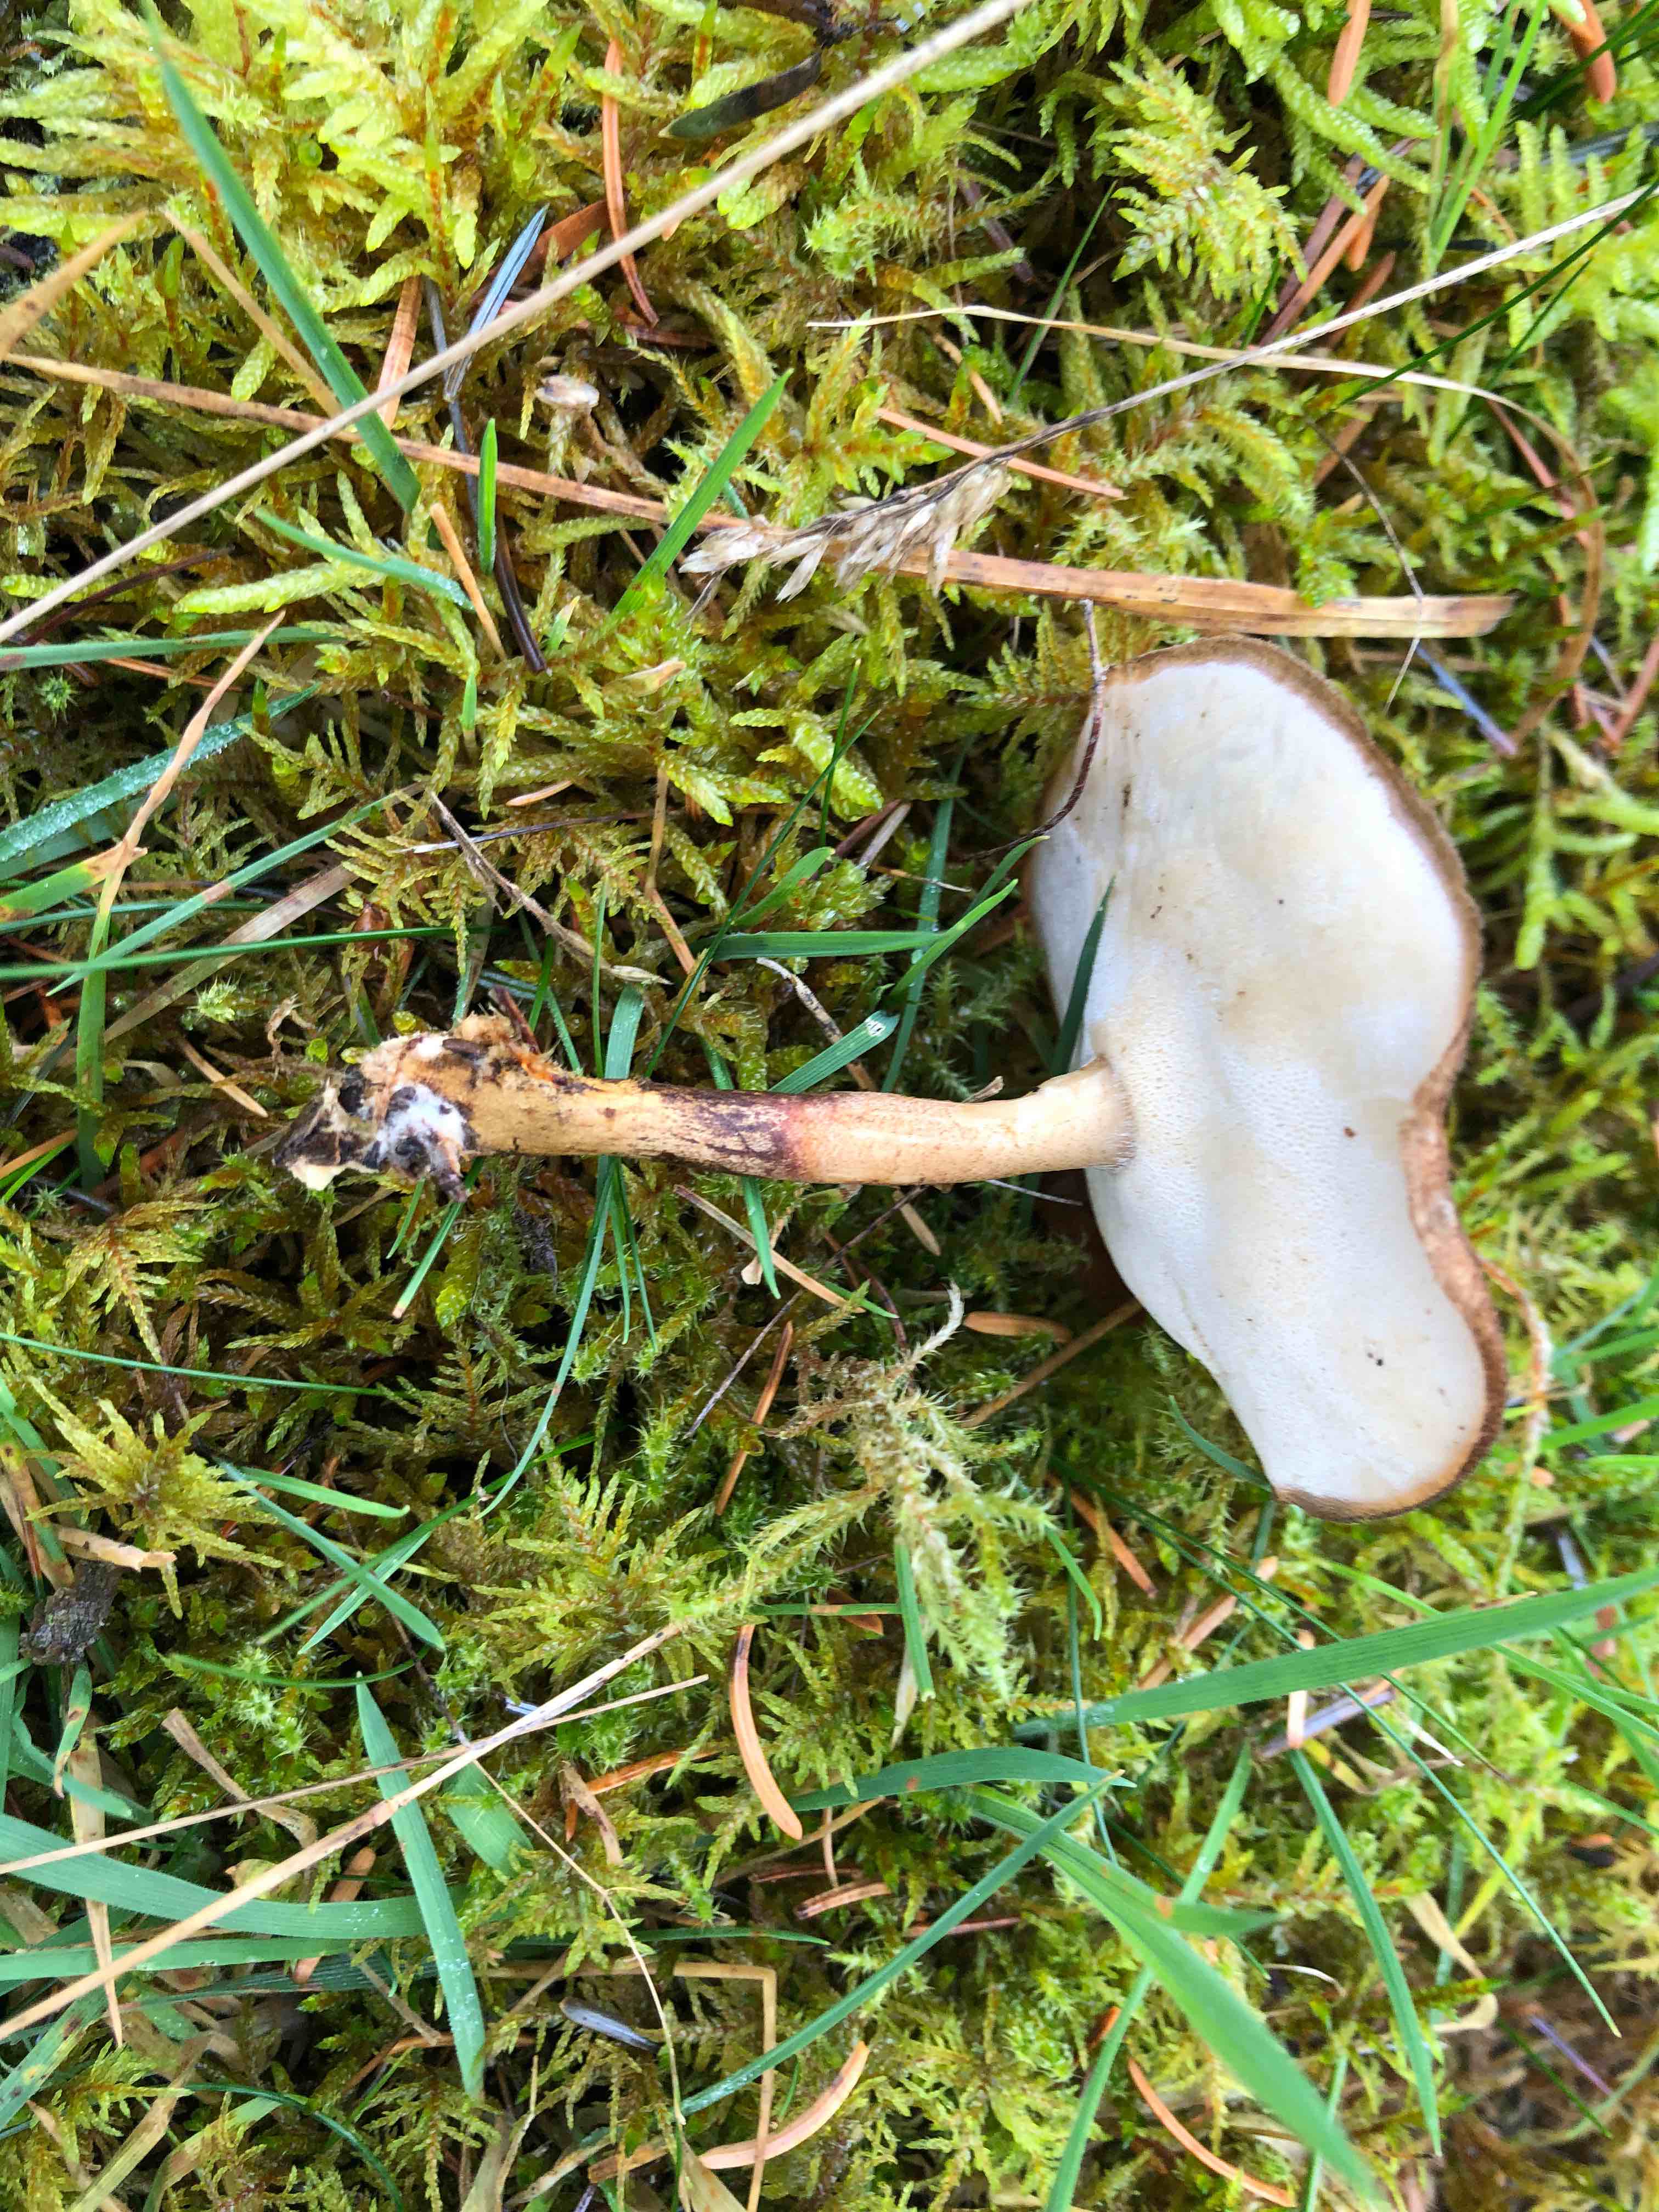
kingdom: Fungi
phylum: Basidiomycota
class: Agaricomycetes
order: Polyporales
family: Polyporaceae
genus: Lentinus
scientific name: Lentinus brumalis
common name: vinter-stilkporesvamp
